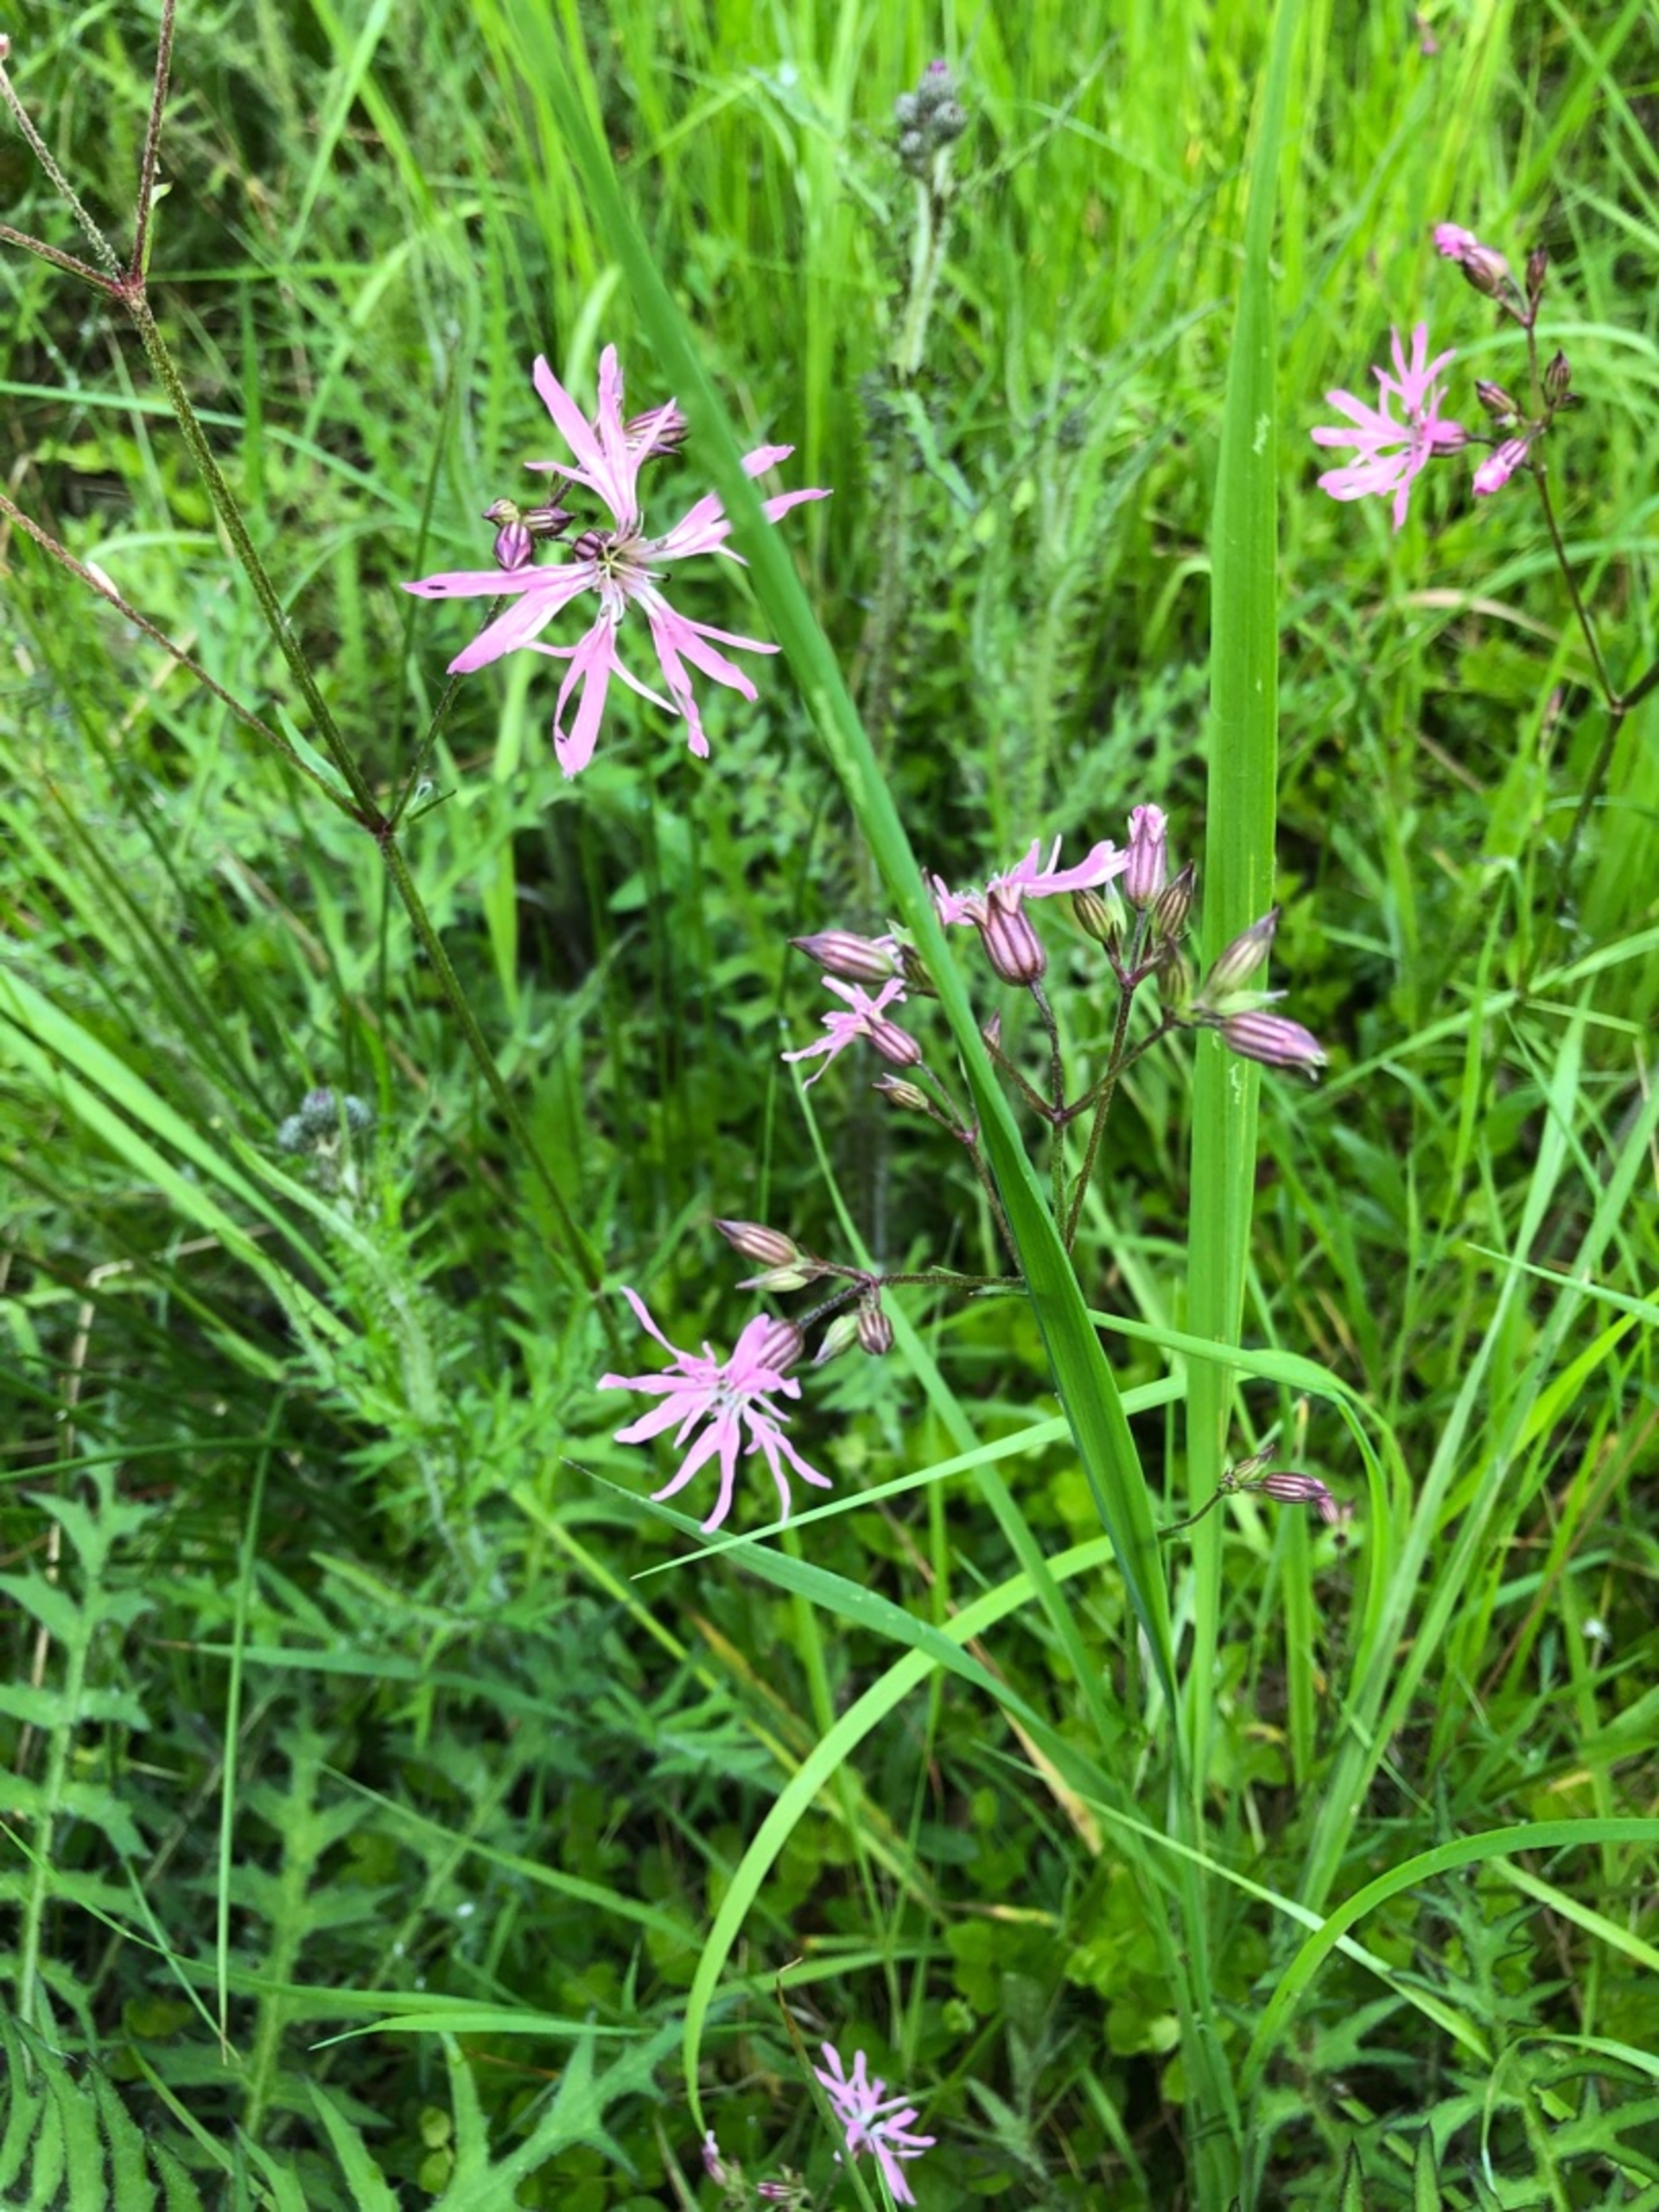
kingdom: Plantae
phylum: Tracheophyta
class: Magnoliopsida
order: Caryophyllales
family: Caryophyllaceae
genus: Silene
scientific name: Silene flos-cuculi
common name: Trævlekrone
